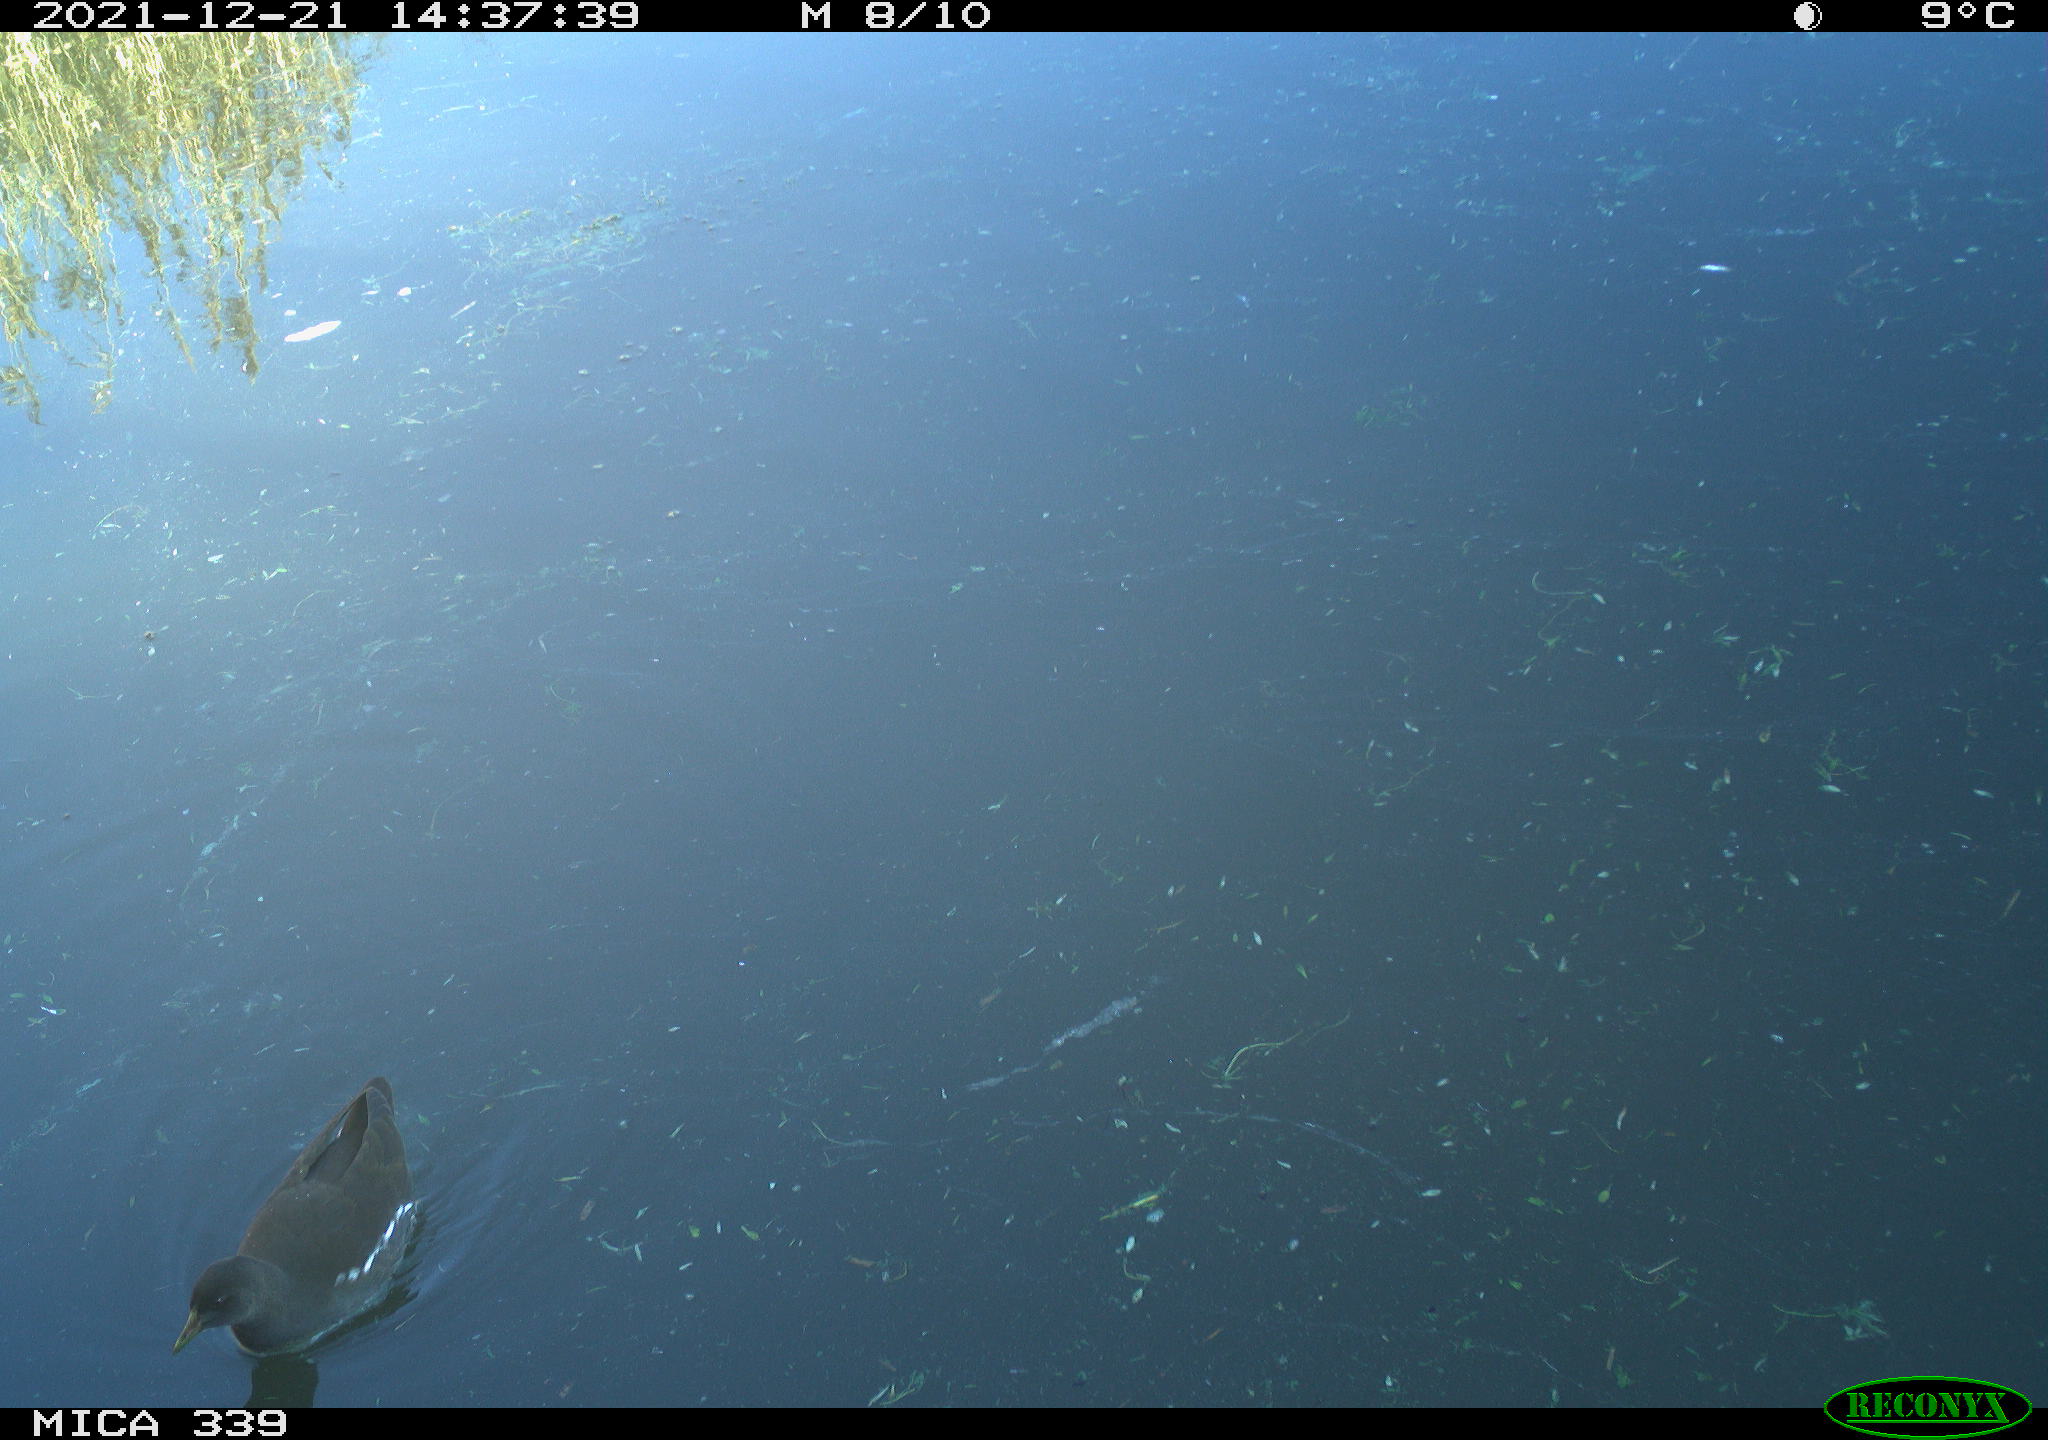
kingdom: Animalia
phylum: Chordata
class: Aves
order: Gruiformes
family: Rallidae
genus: Gallinula
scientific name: Gallinula chloropus
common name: Common moorhen
